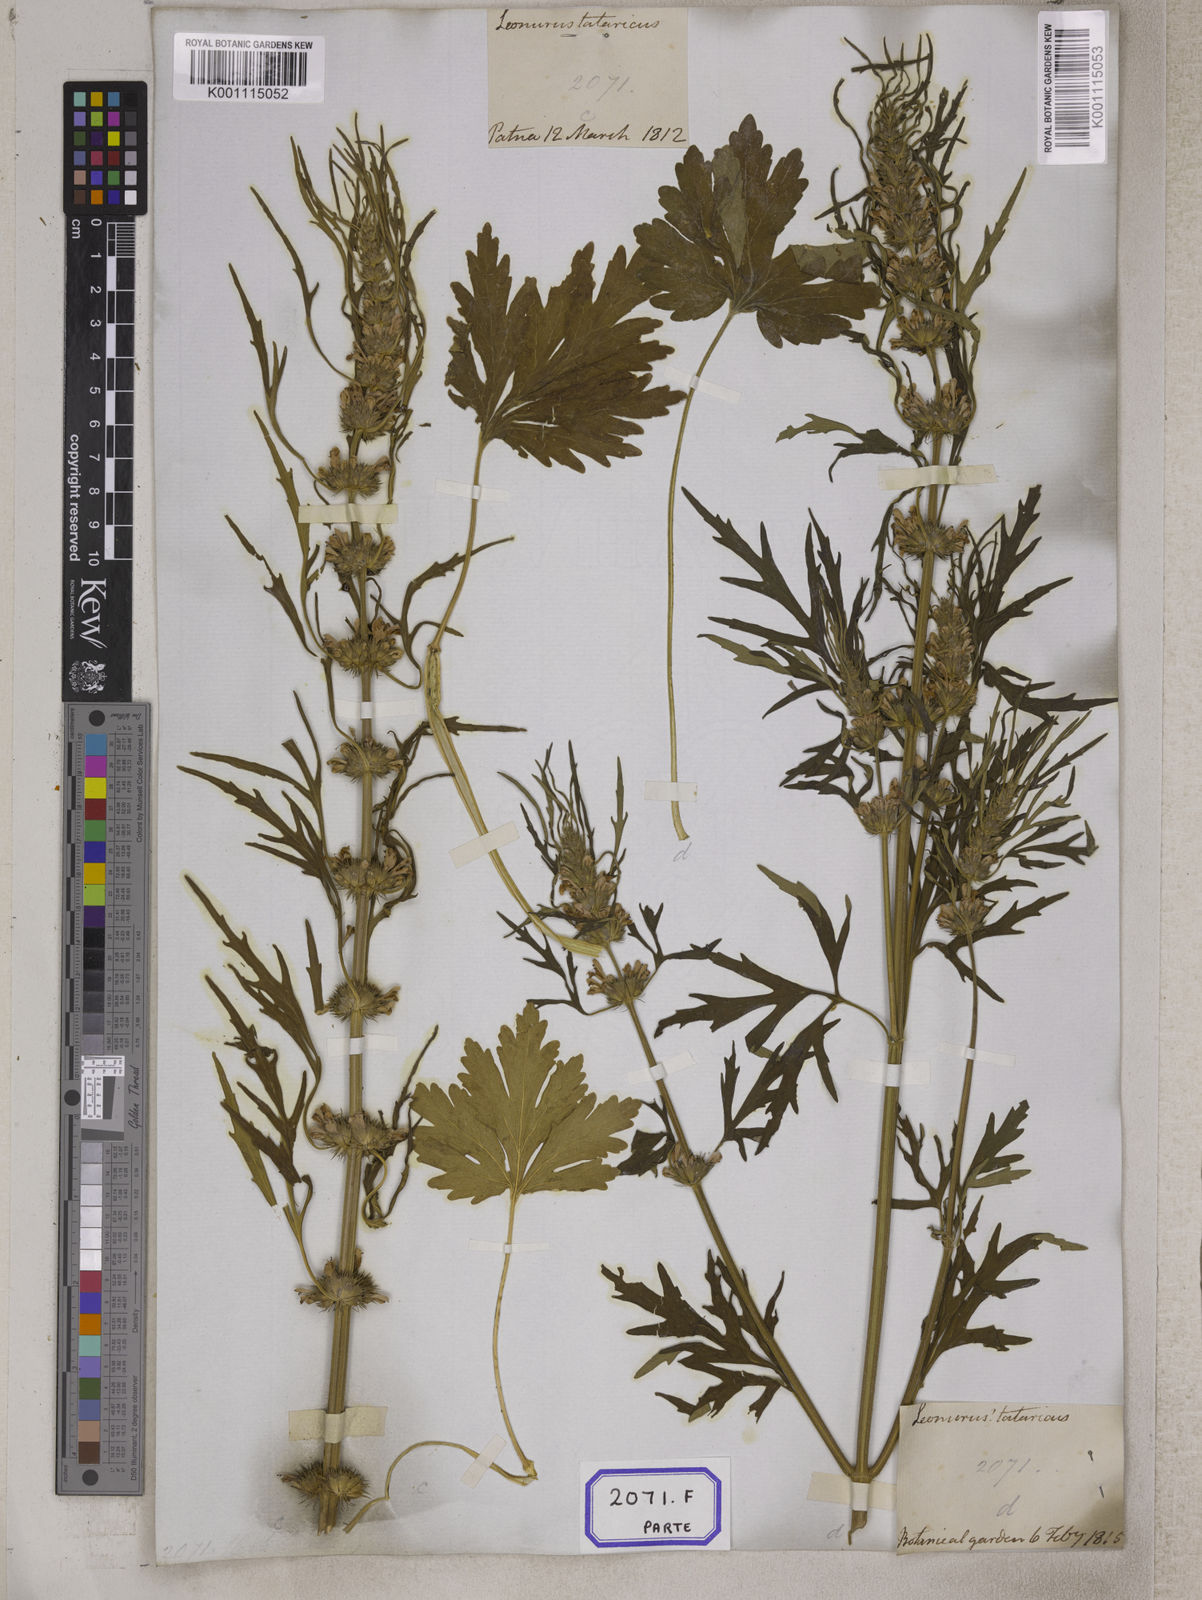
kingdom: Plantae
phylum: Tracheophyta
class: Magnoliopsida
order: Lamiales
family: Lamiaceae
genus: Leonurus
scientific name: Leonurus sibiricus
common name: Honeyweed
